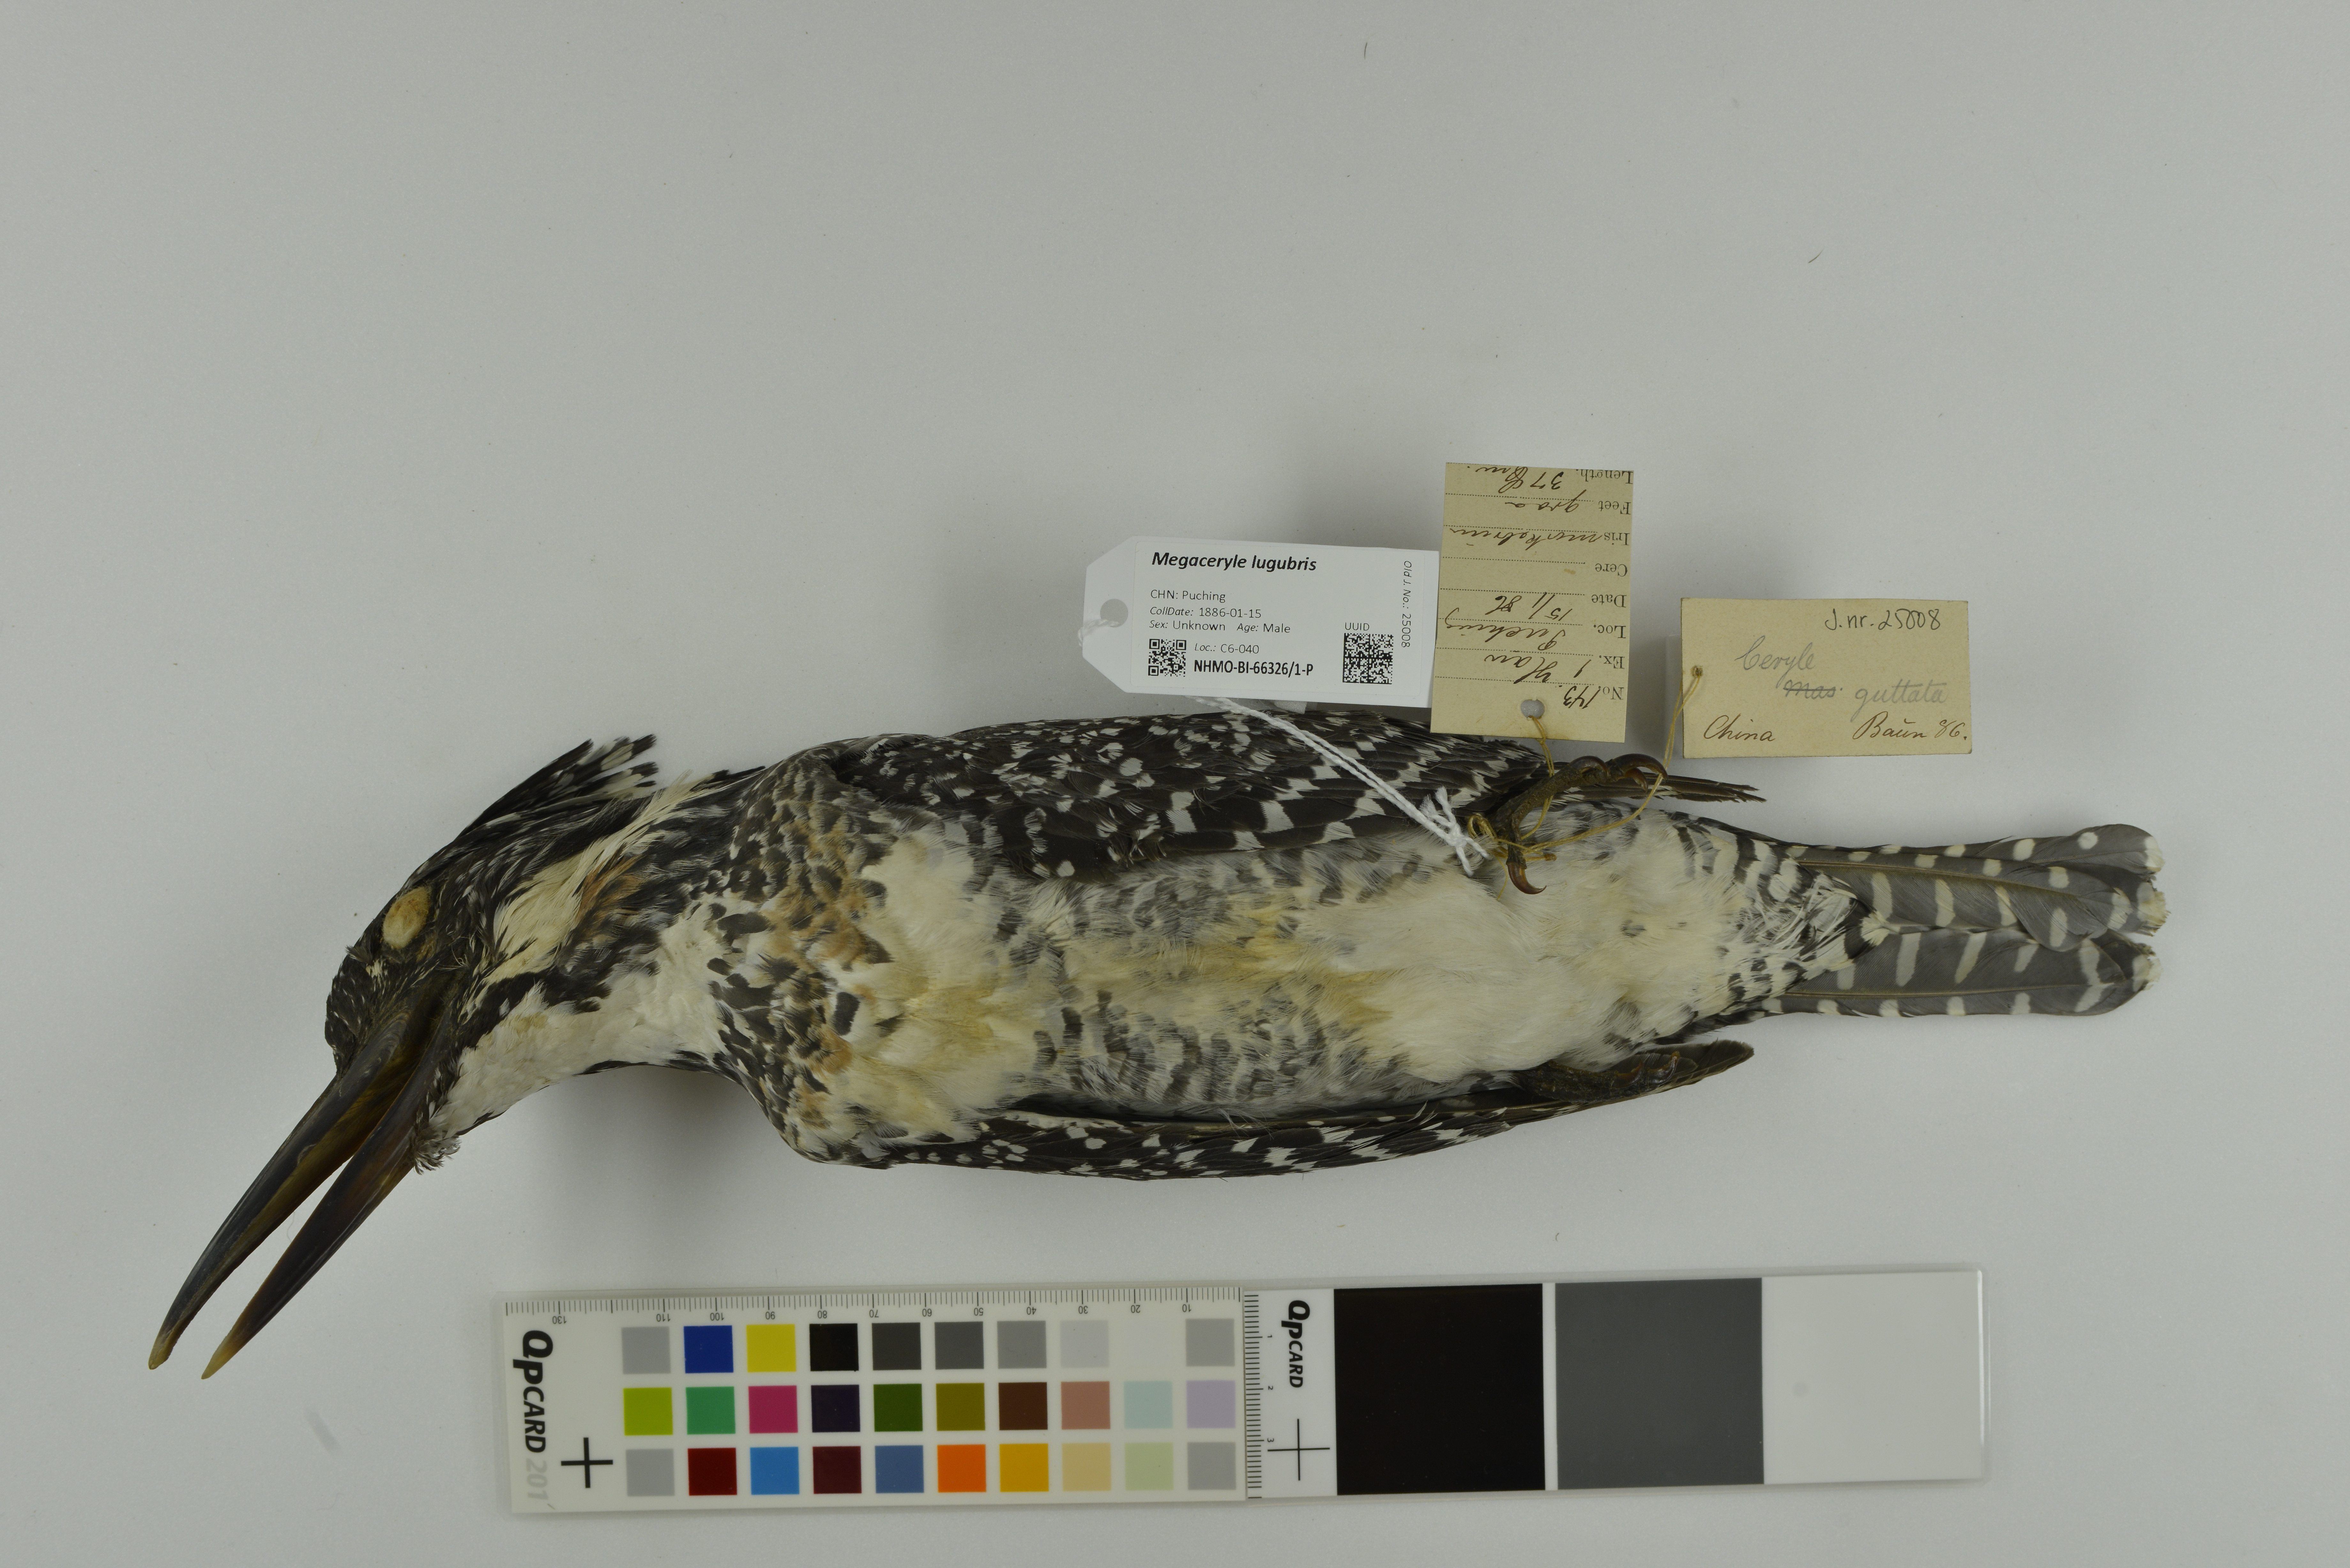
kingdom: Animalia
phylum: Chordata
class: Aves
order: Coraciiformes
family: Alcedinidae
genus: Megaceryle
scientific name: Megaceryle lugubris
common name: Crested kingfisher
